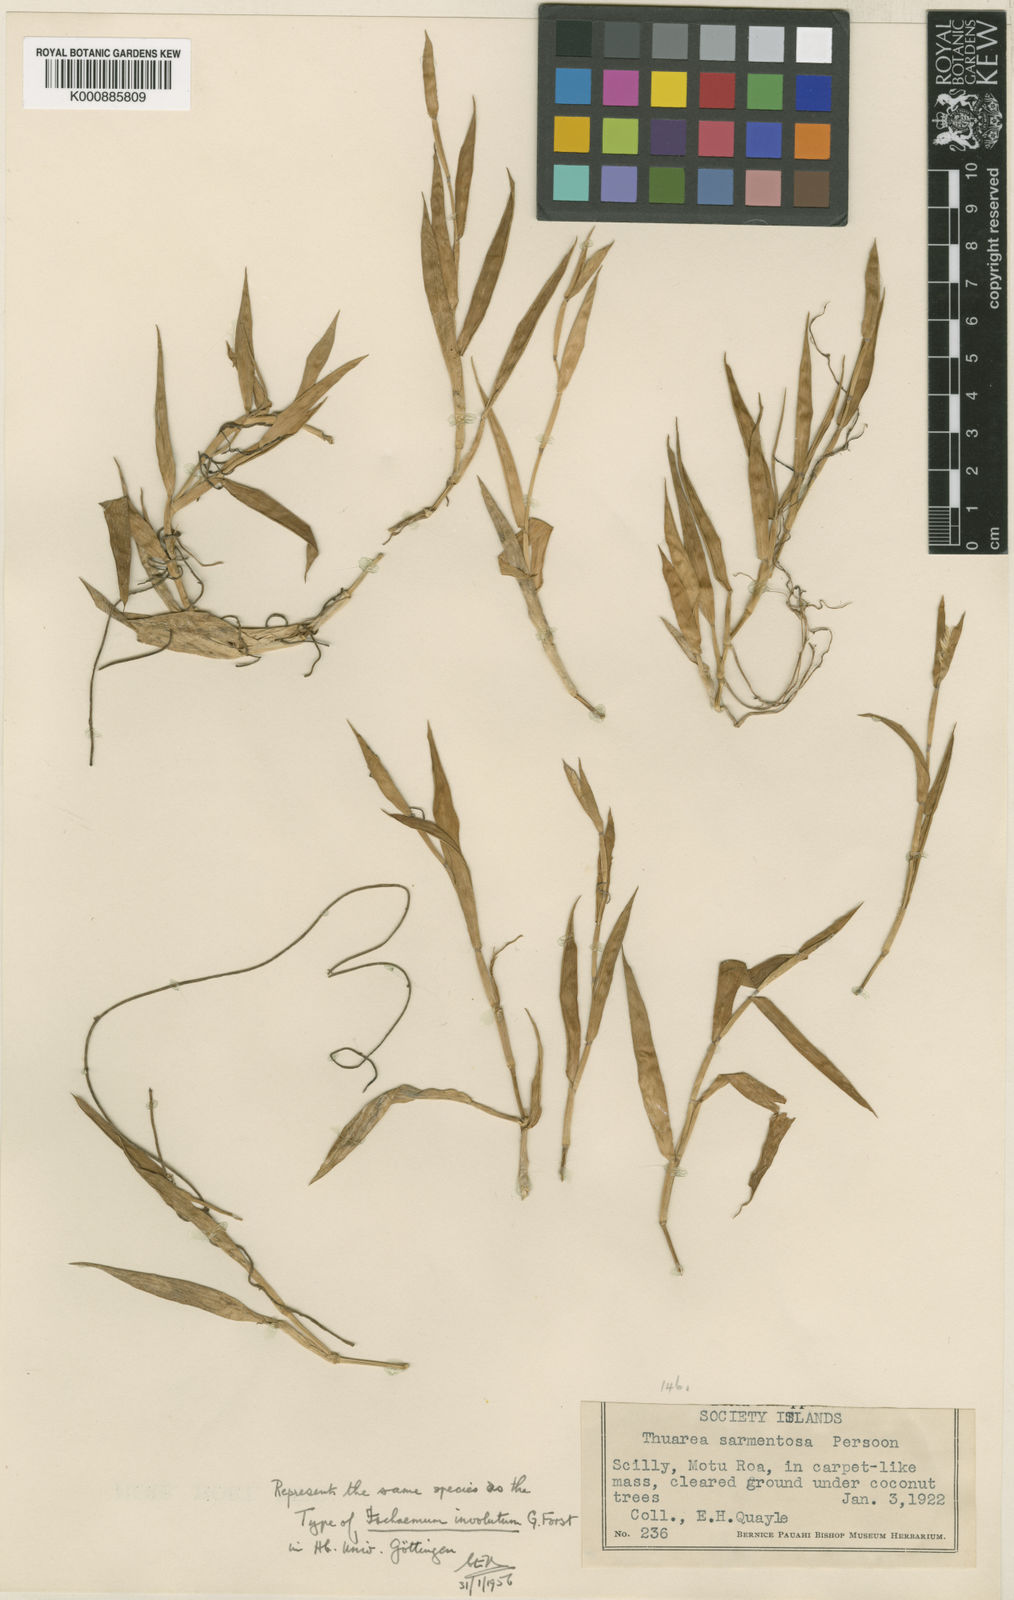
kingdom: Plantae
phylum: Tracheophyta
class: Liliopsida
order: Poales
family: Poaceae
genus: Thuarea
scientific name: Thuarea involuta
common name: Tropical beach grass
